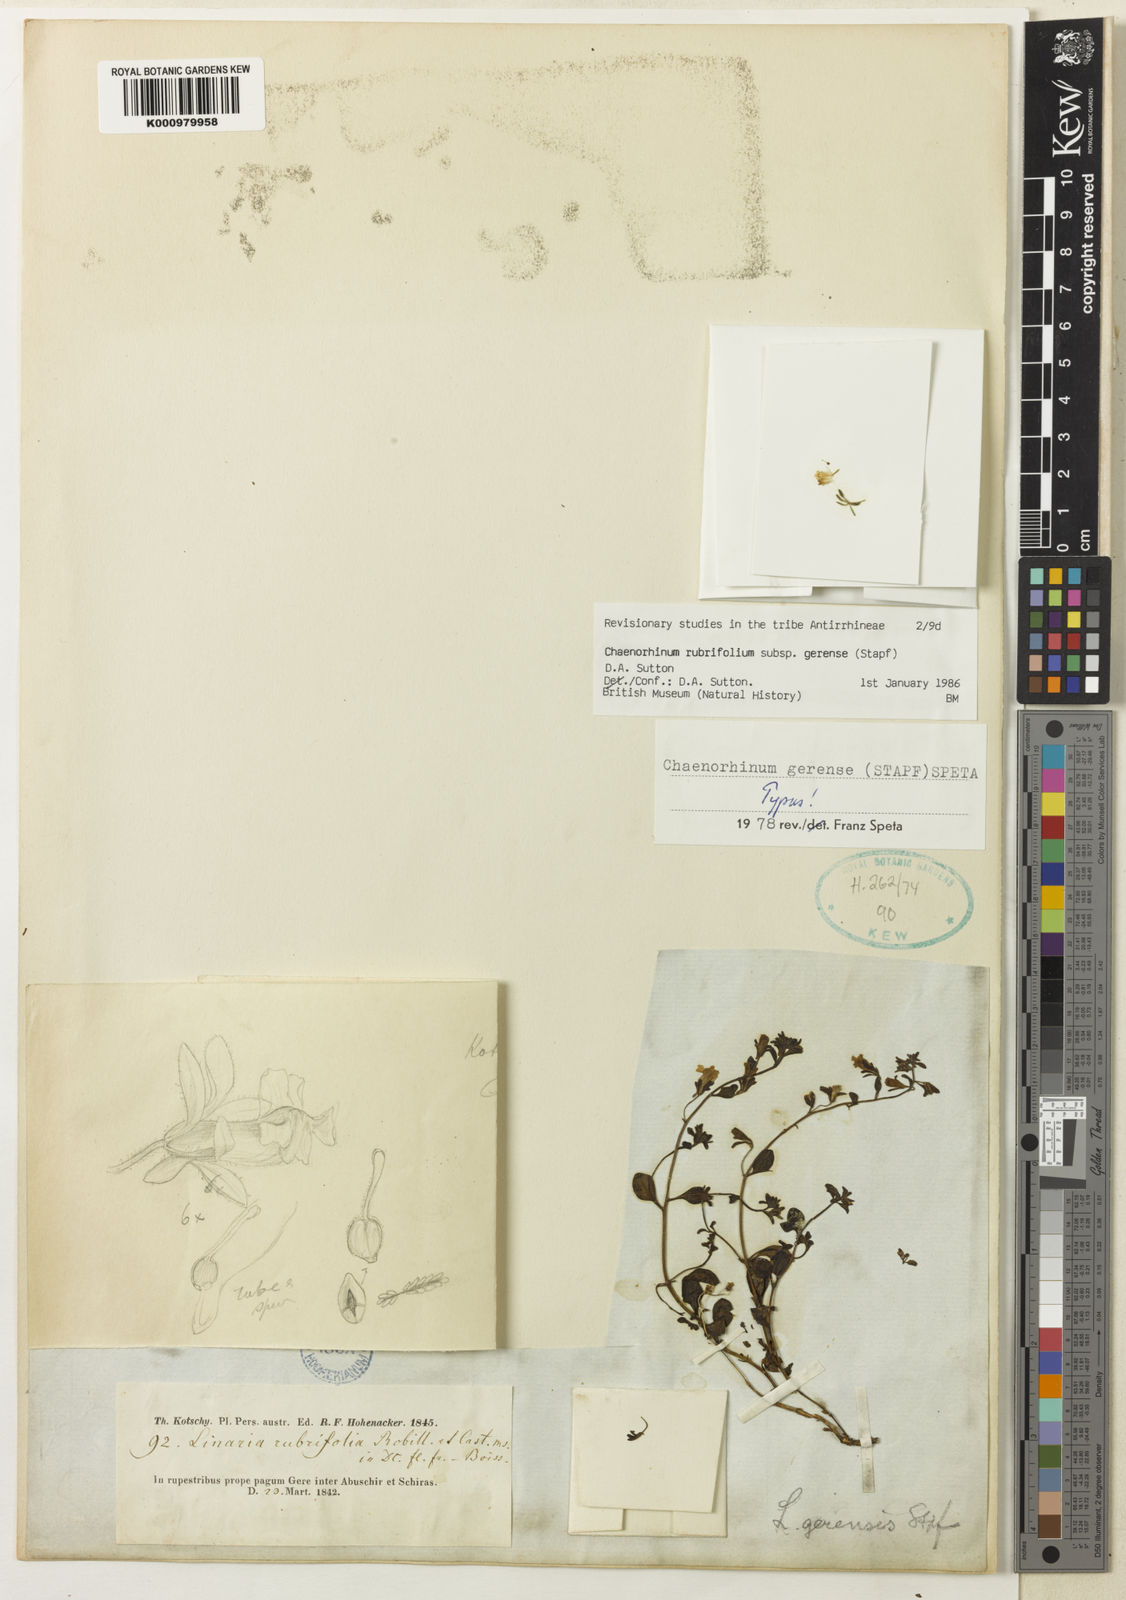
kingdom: Plantae
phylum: Tracheophyta
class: Magnoliopsida
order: Lamiales
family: Plantaginaceae
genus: Chaenorhinum
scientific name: Chaenorhinum rubrifolium
